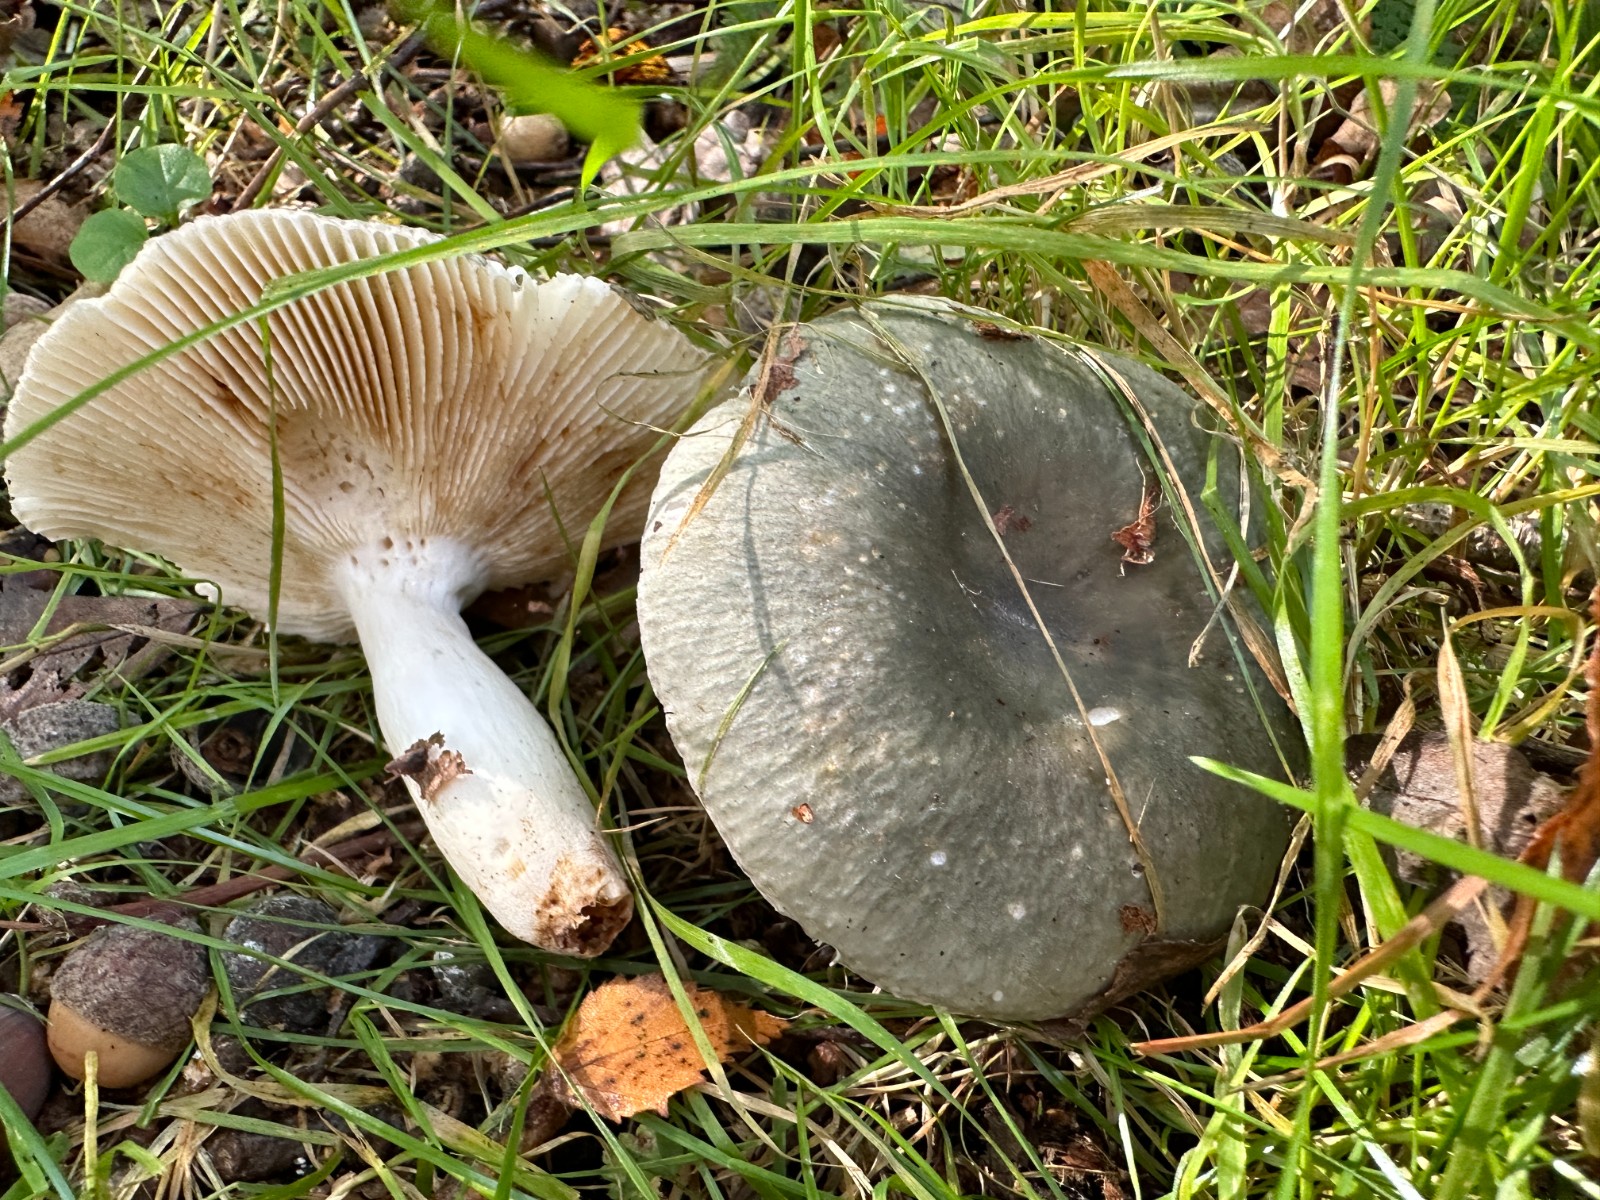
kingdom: Fungi
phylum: Basidiomycota
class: Agaricomycetes
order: Russulales
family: Russulaceae
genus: Russula
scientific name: Russula aeruginea
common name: græsgrøn skørhat
